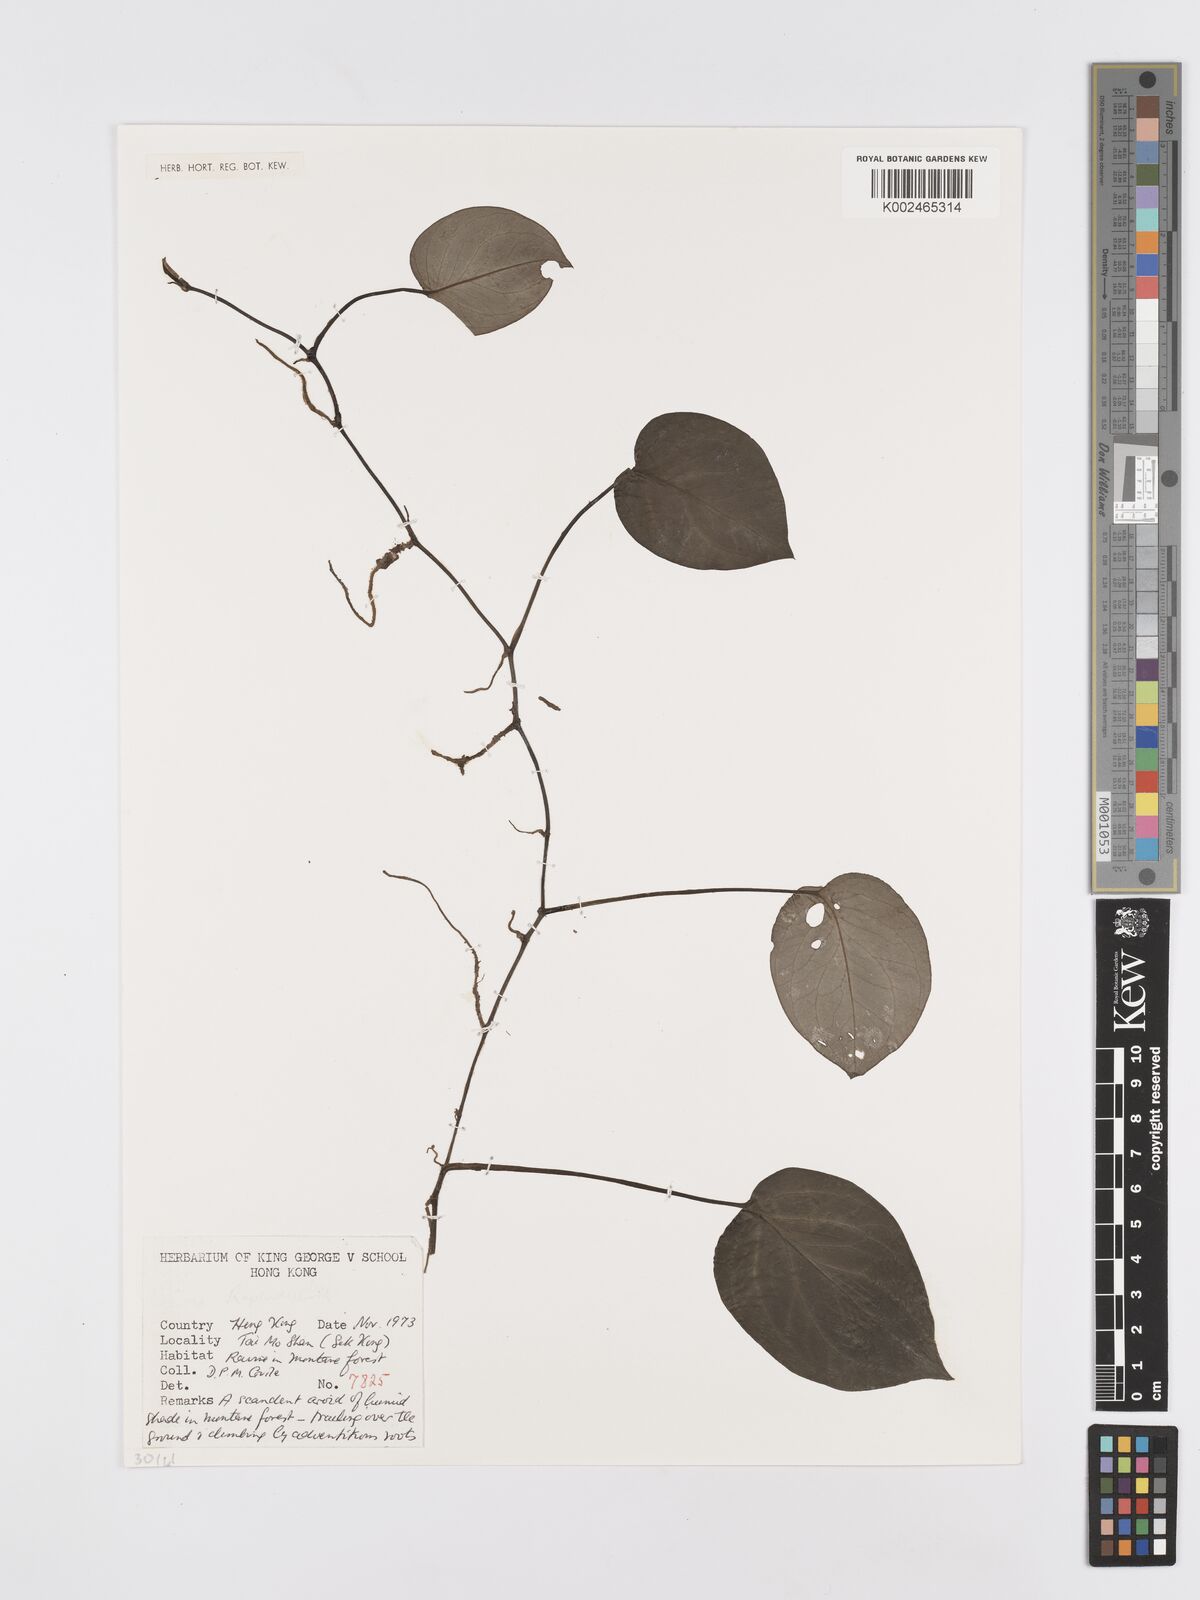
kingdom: Plantae
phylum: Tracheophyta
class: Liliopsida
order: Alismatales
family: Araceae
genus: Rhaphidophora
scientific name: Rhaphidophora
